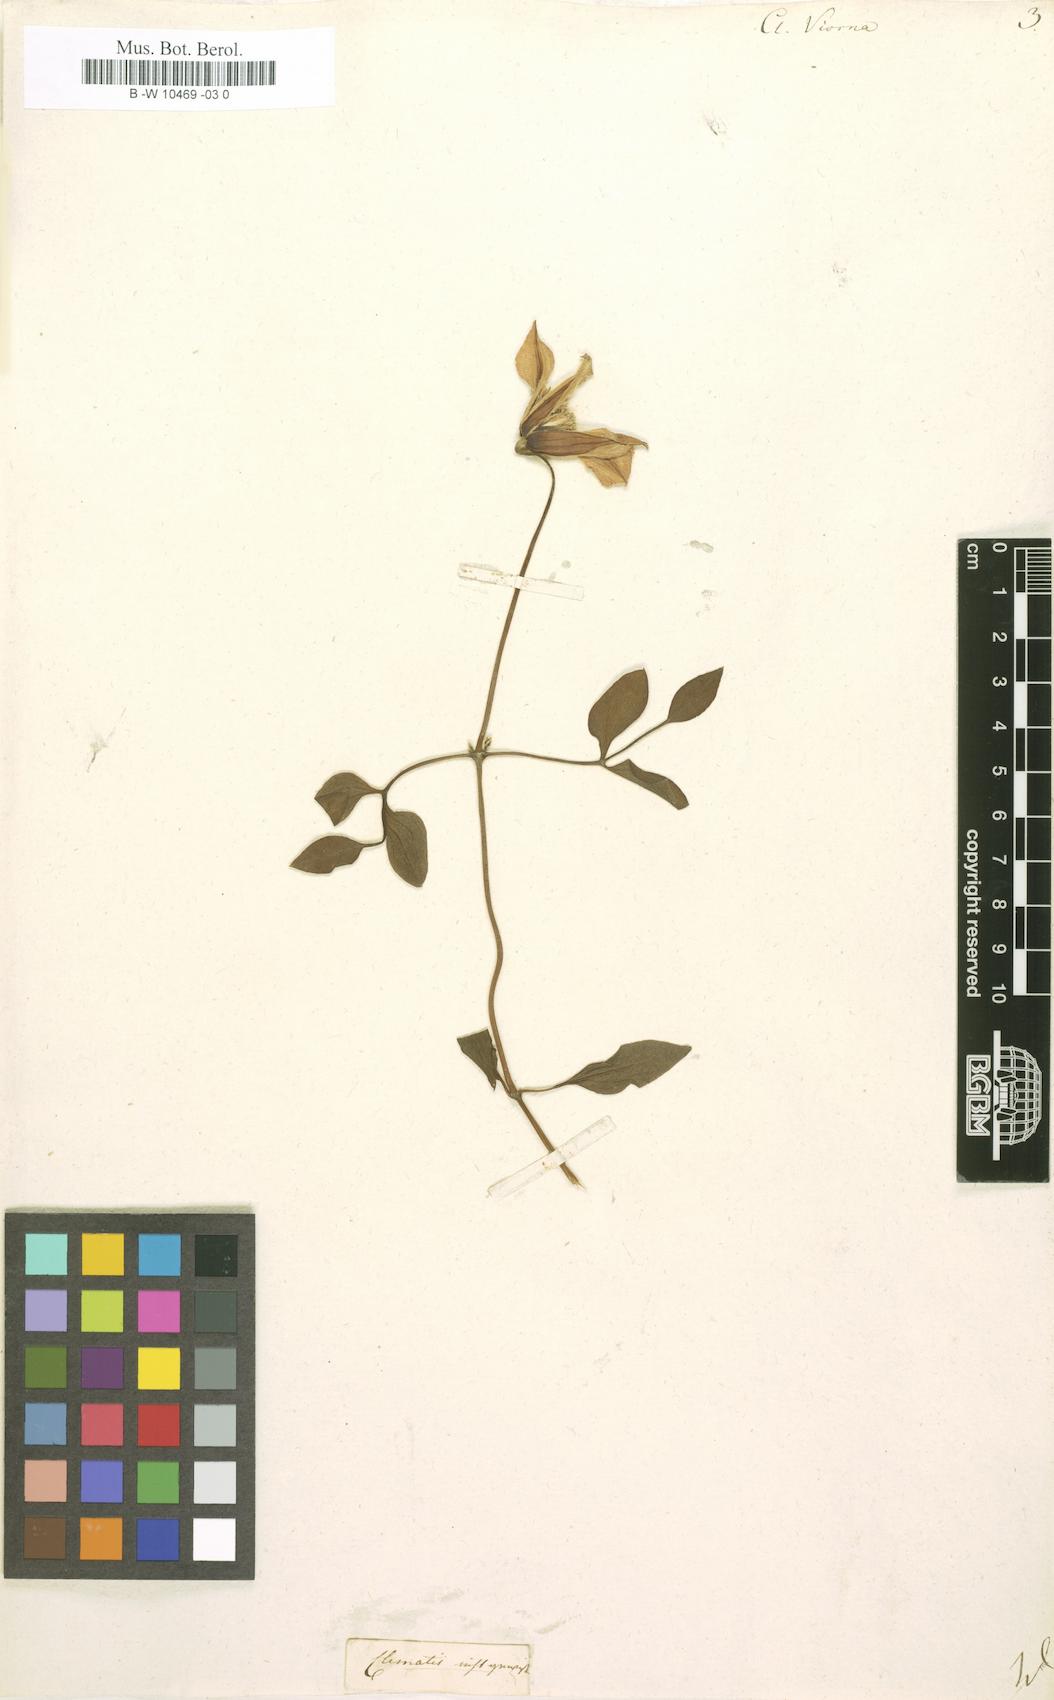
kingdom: Plantae
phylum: Tracheophyta
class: Magnoliopsida
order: Ranunculales
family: Ranunculaceae
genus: Clematis
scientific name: Clematis viorna
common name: Leather-flower
